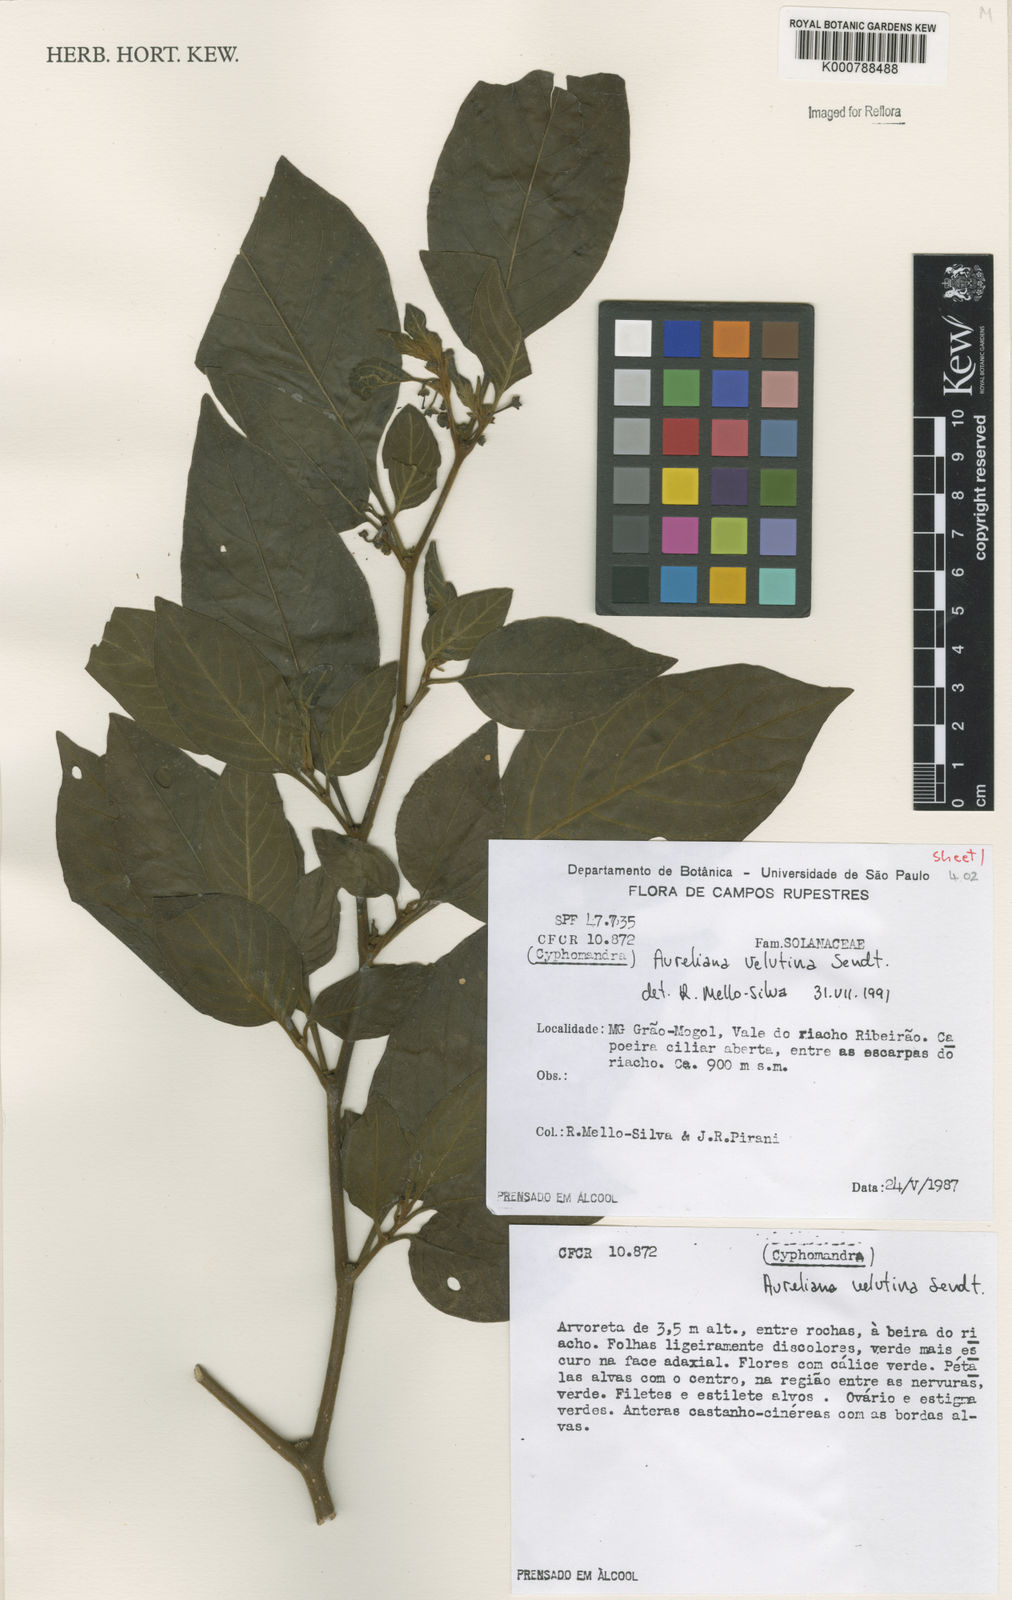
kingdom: Plantae
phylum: Tracheophyta
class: Magnoliopsida
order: Solanales
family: Solanaceae
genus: Athenaea
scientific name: Athenaea velutina
